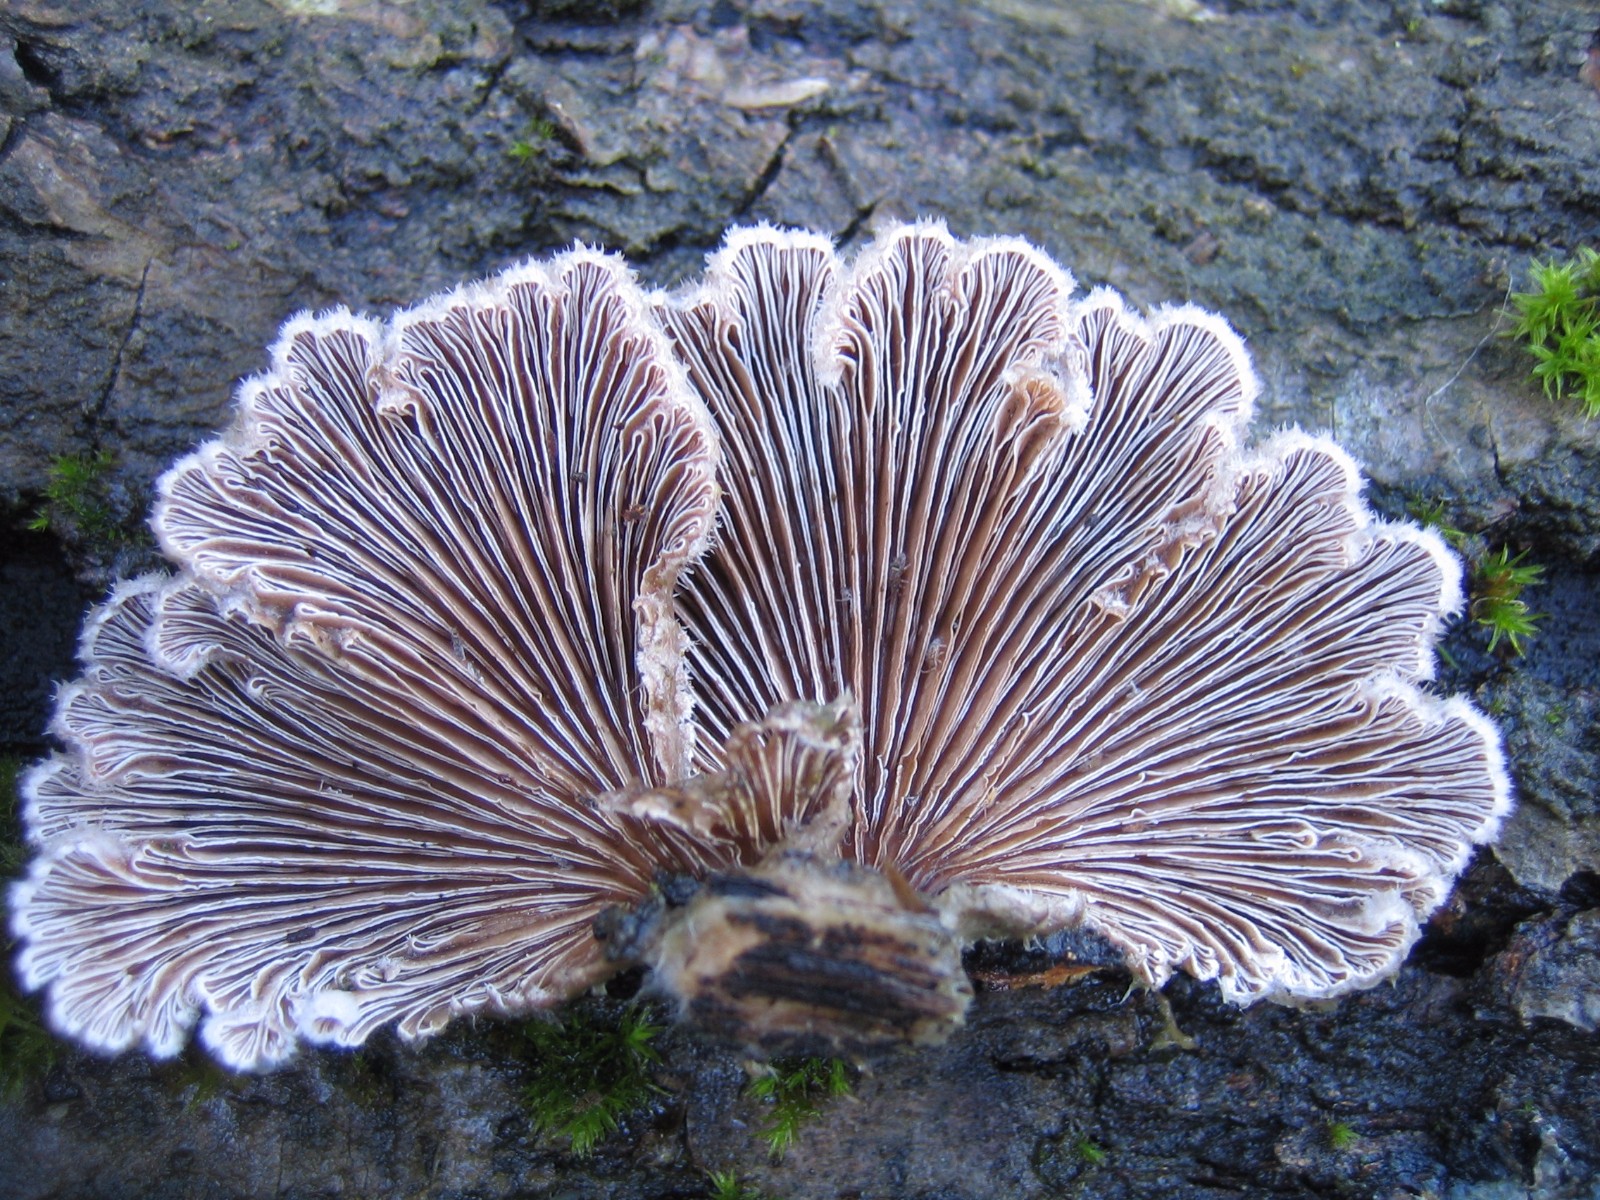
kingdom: Fungi
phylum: Basidiomycota
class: Agaricomycetes
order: Agaricales
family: Schizophyllaceae
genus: Schizophyllum
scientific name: Schizophyllum commune
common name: kløvblad
